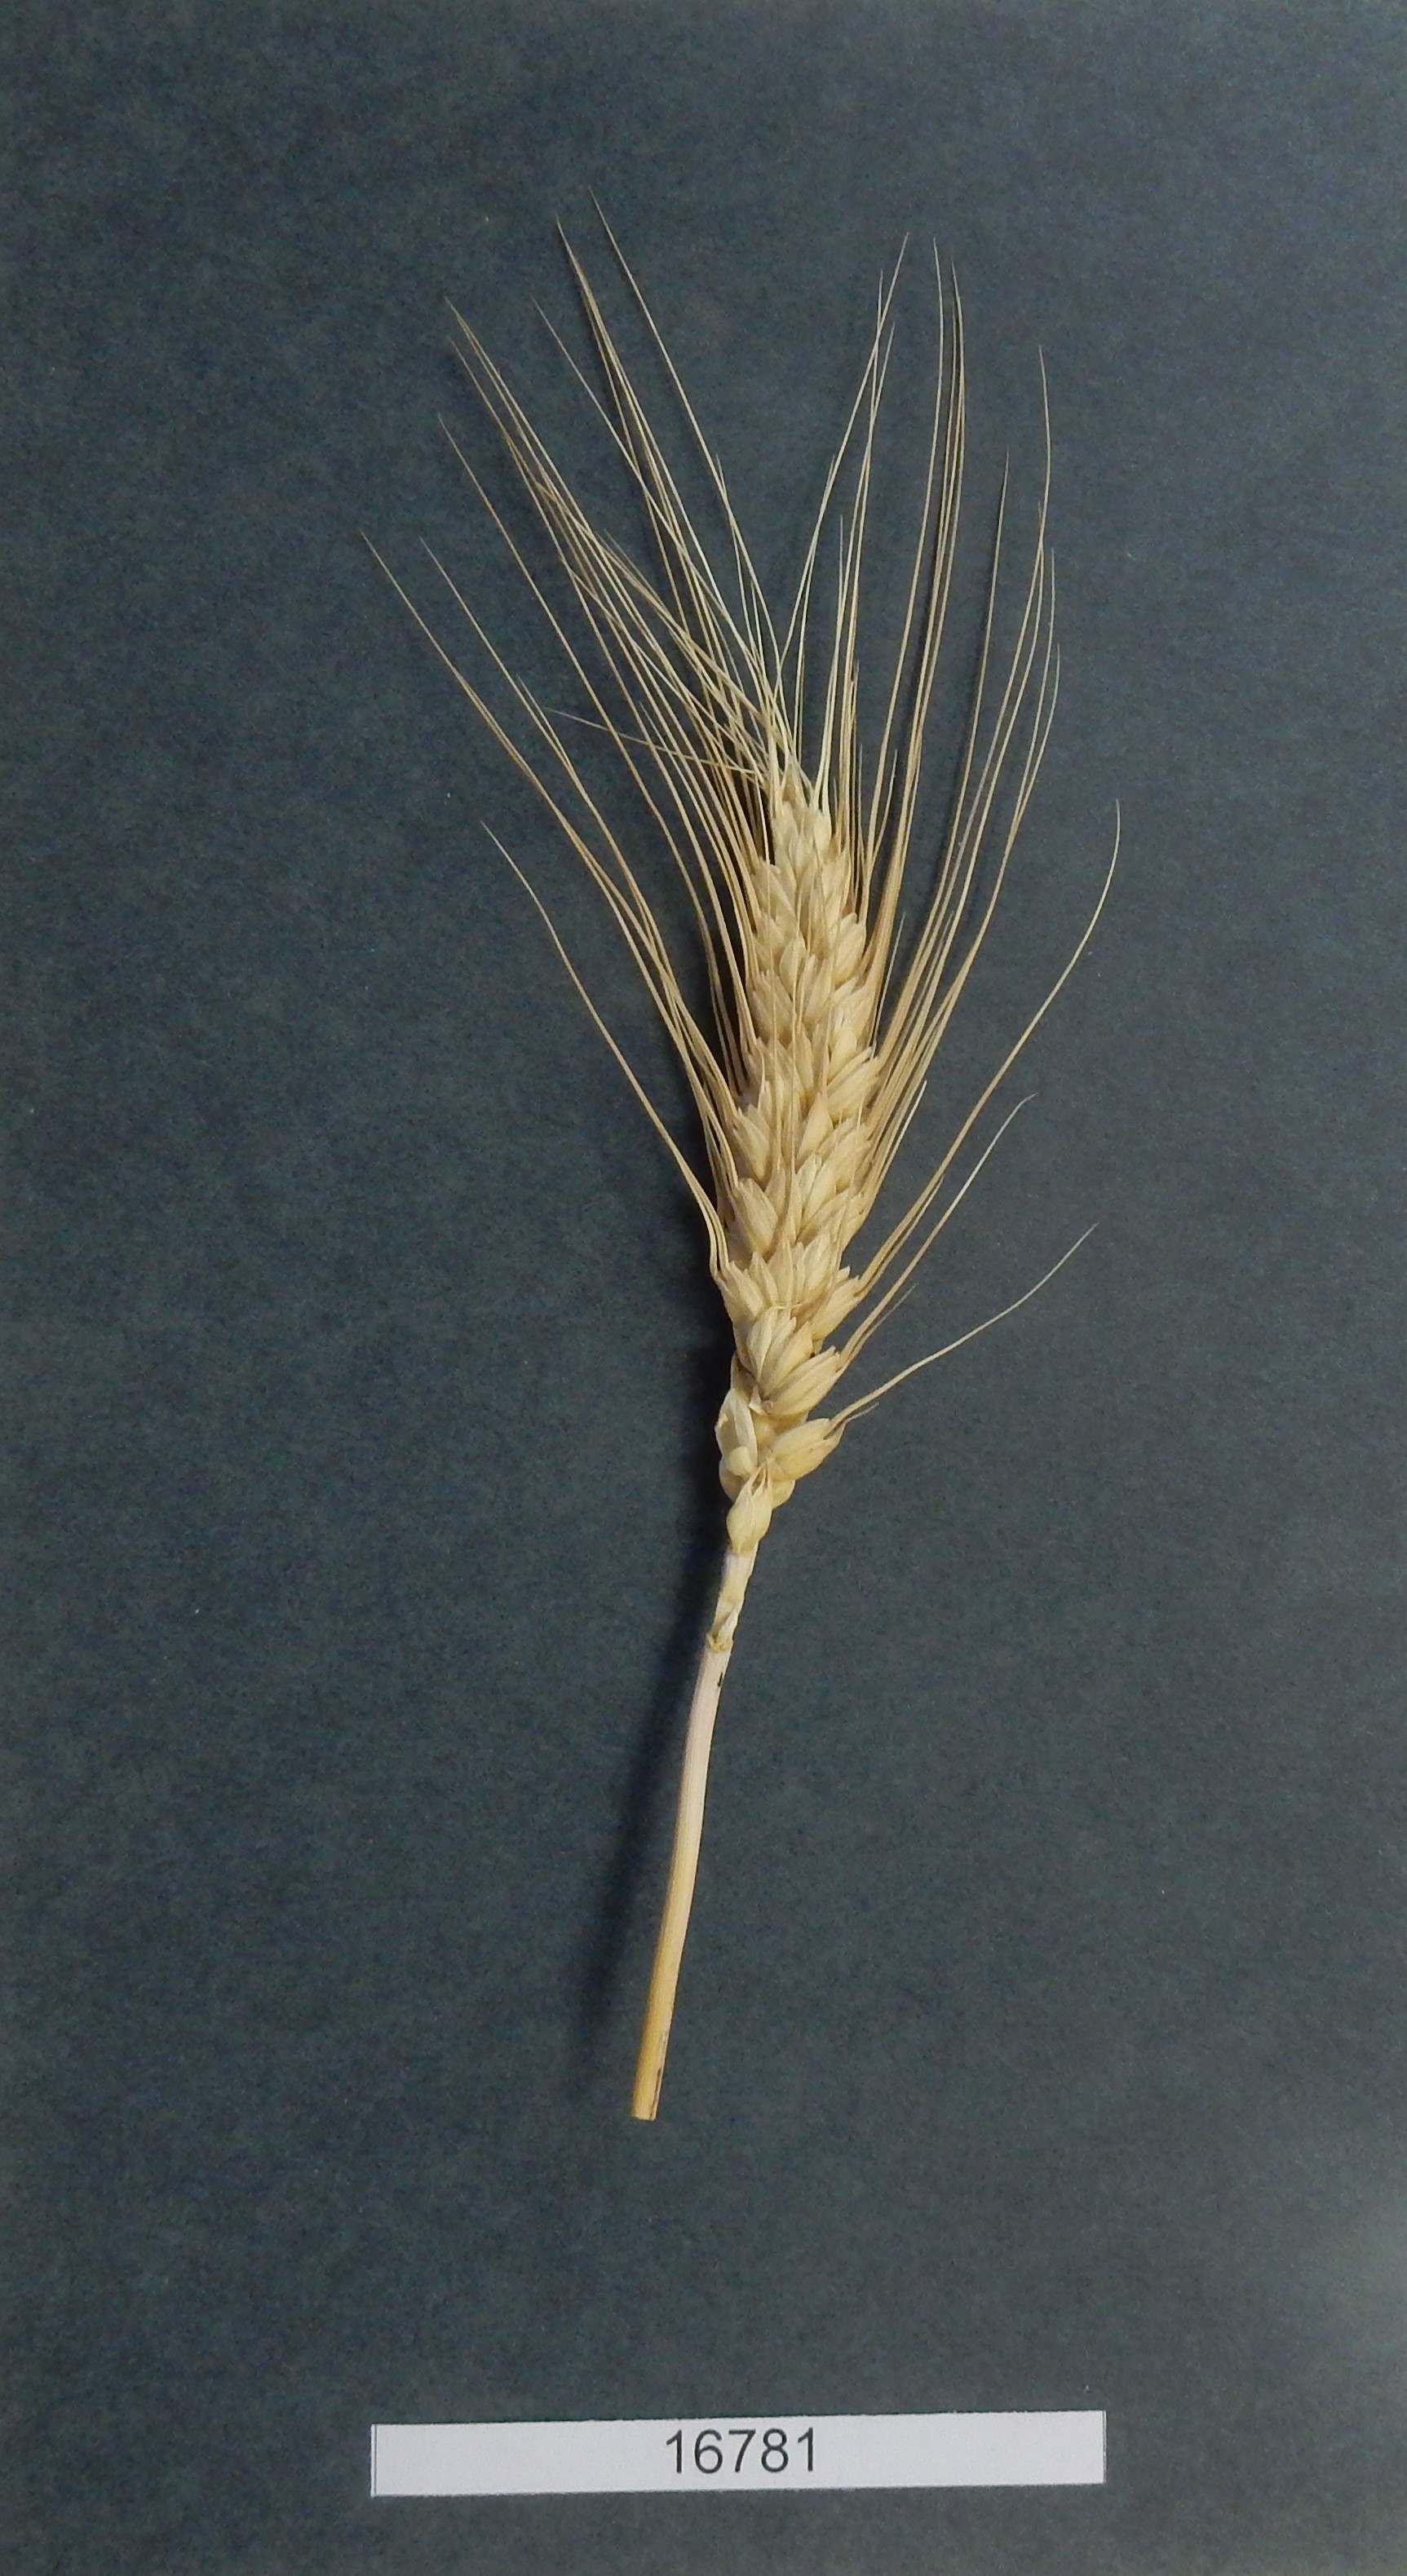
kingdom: Plantae
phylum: Tracheophyta
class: Liliopsida
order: Poales
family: Poaceae
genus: Triticum
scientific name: Triticum
